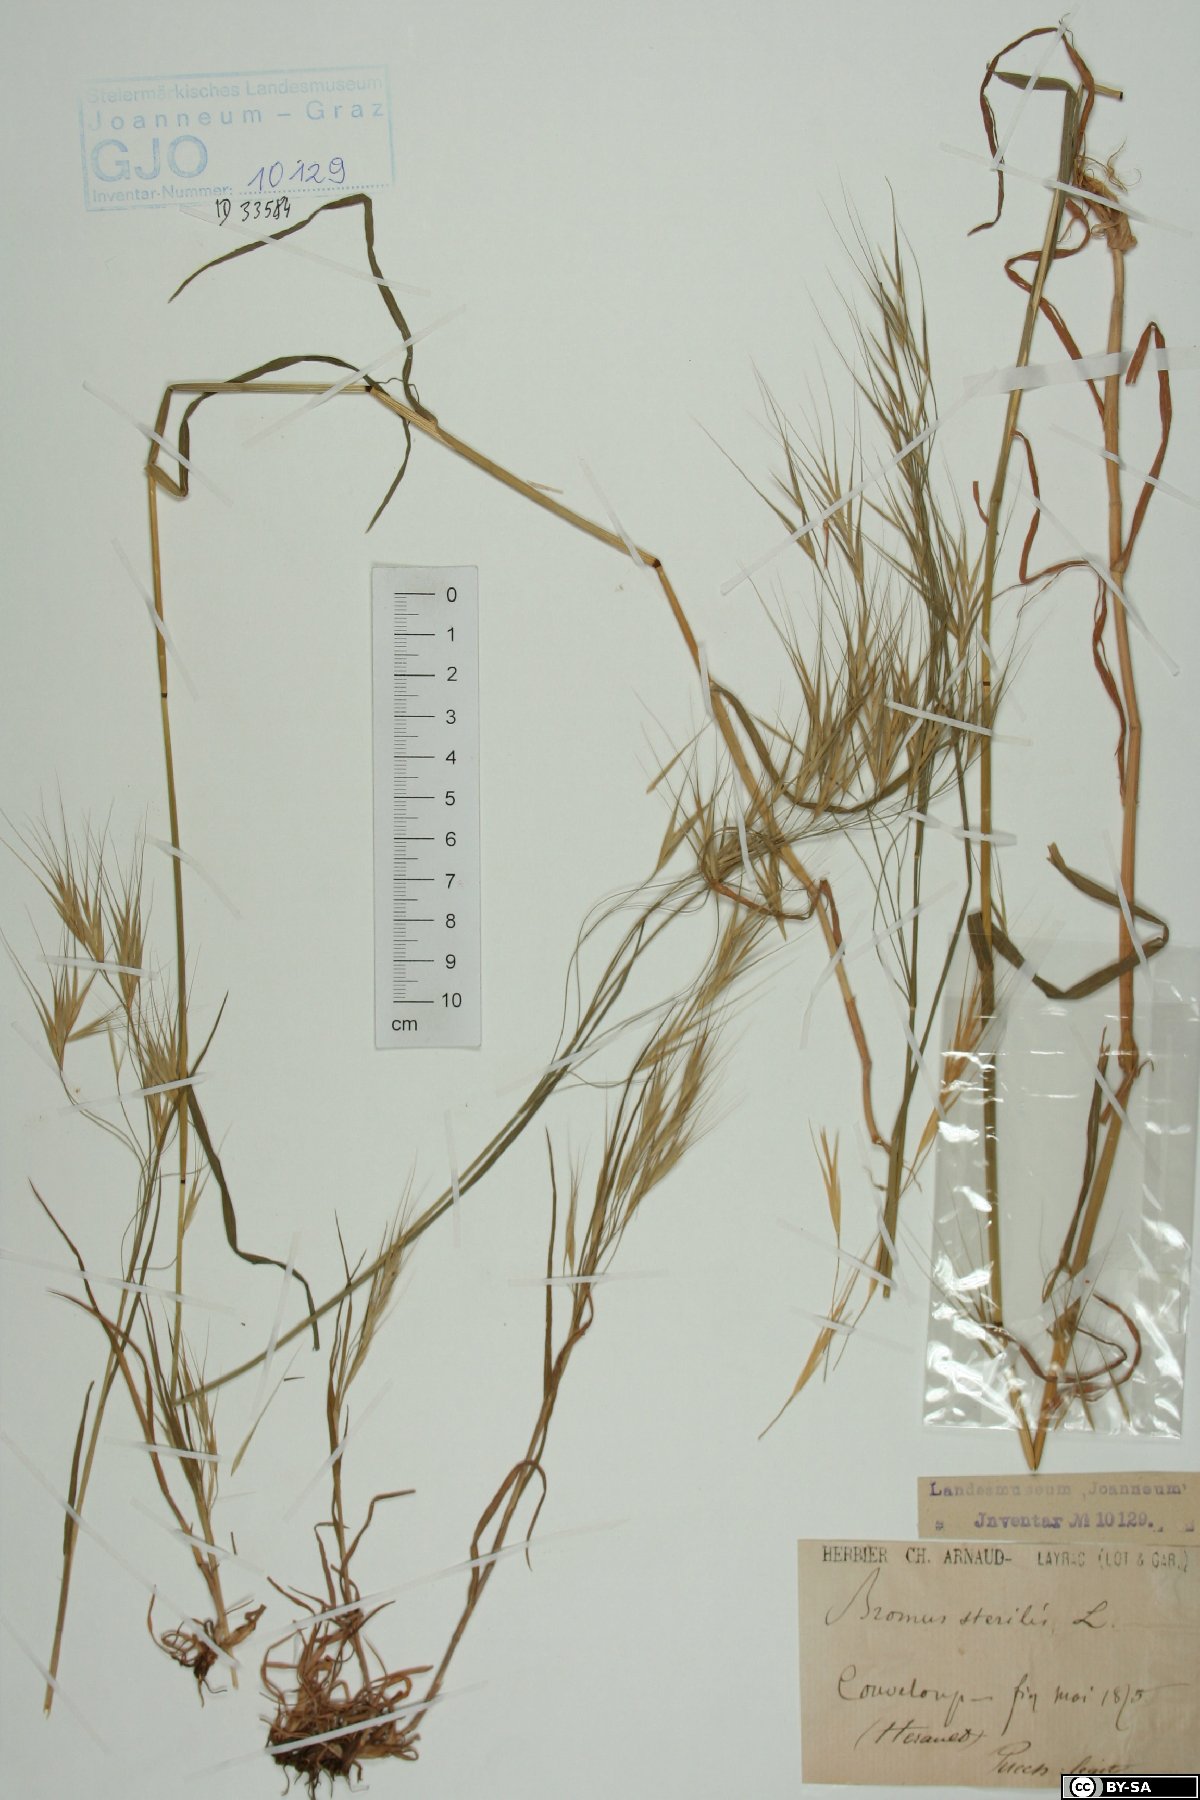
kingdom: Plantae
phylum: Tracheophyta
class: Liliopsida
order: Poales
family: Poaceae
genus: Bromus
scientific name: Bromus sterilis
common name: Poverty brome
